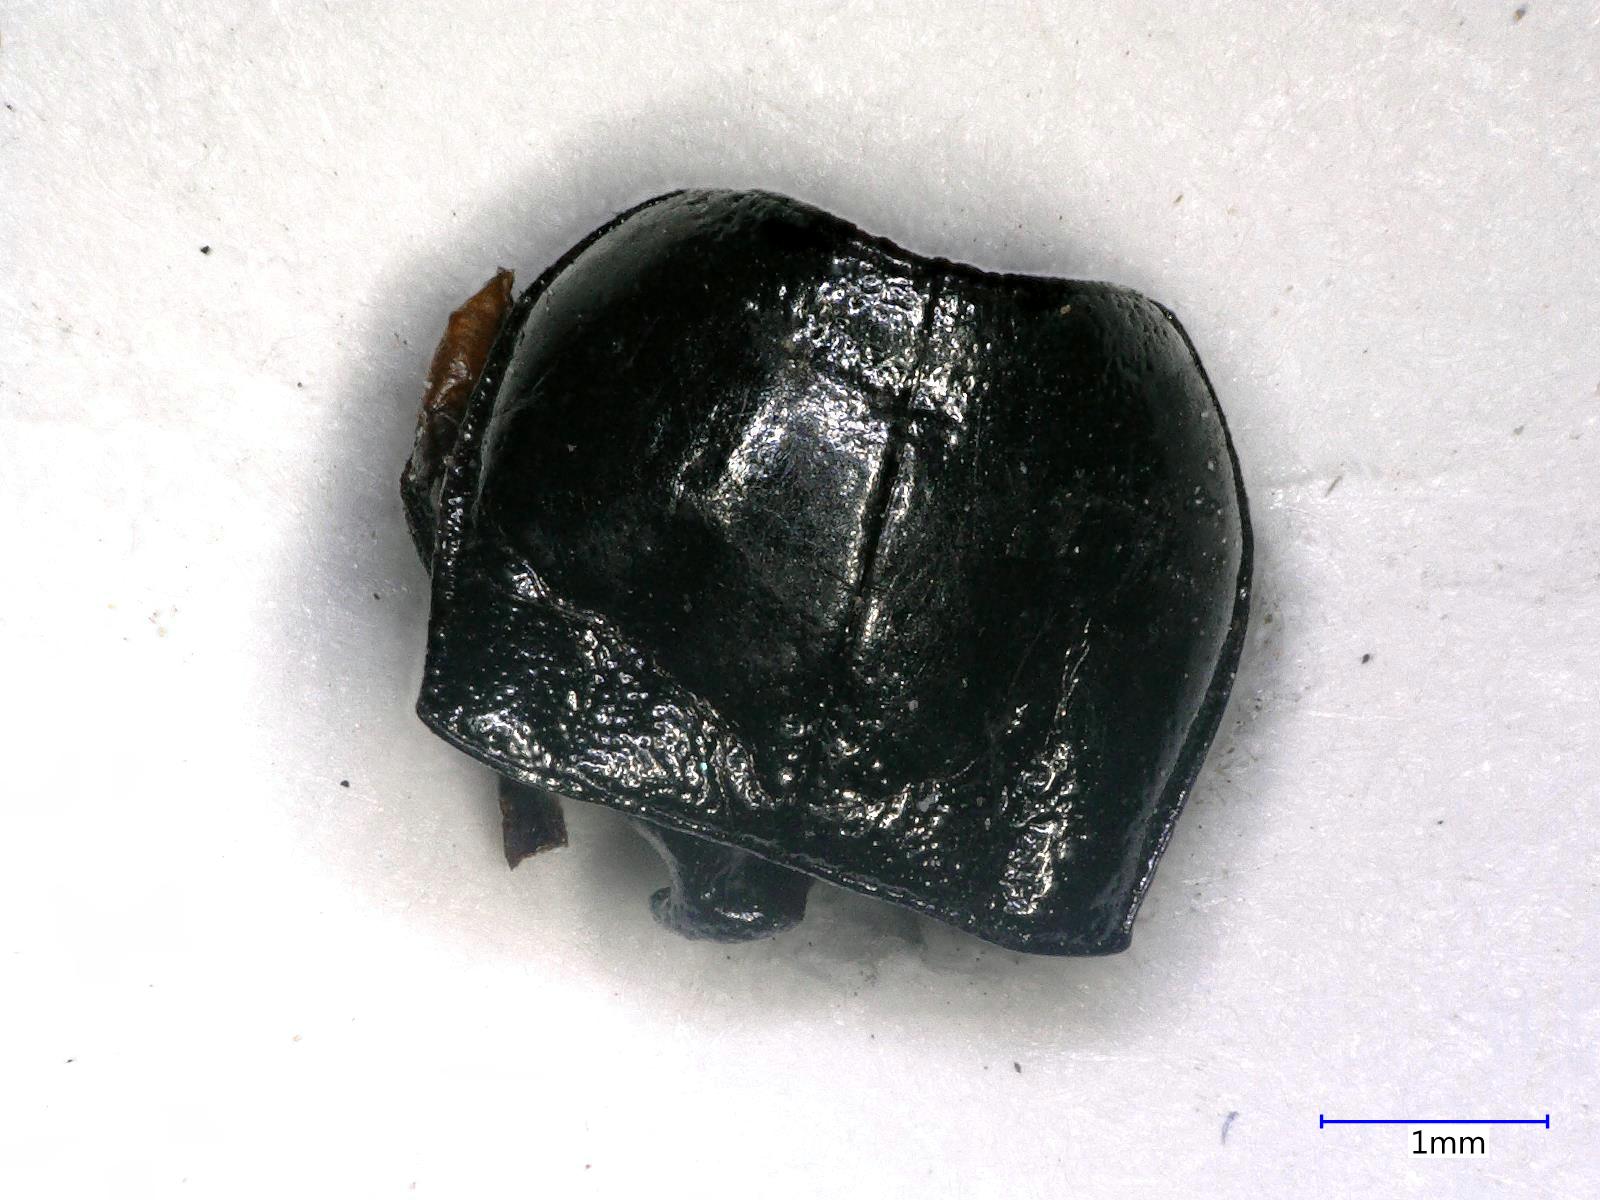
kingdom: Animalia
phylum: Arthropoda
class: Insecta
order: Coleoptera
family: Carabidae
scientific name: Carabidae
